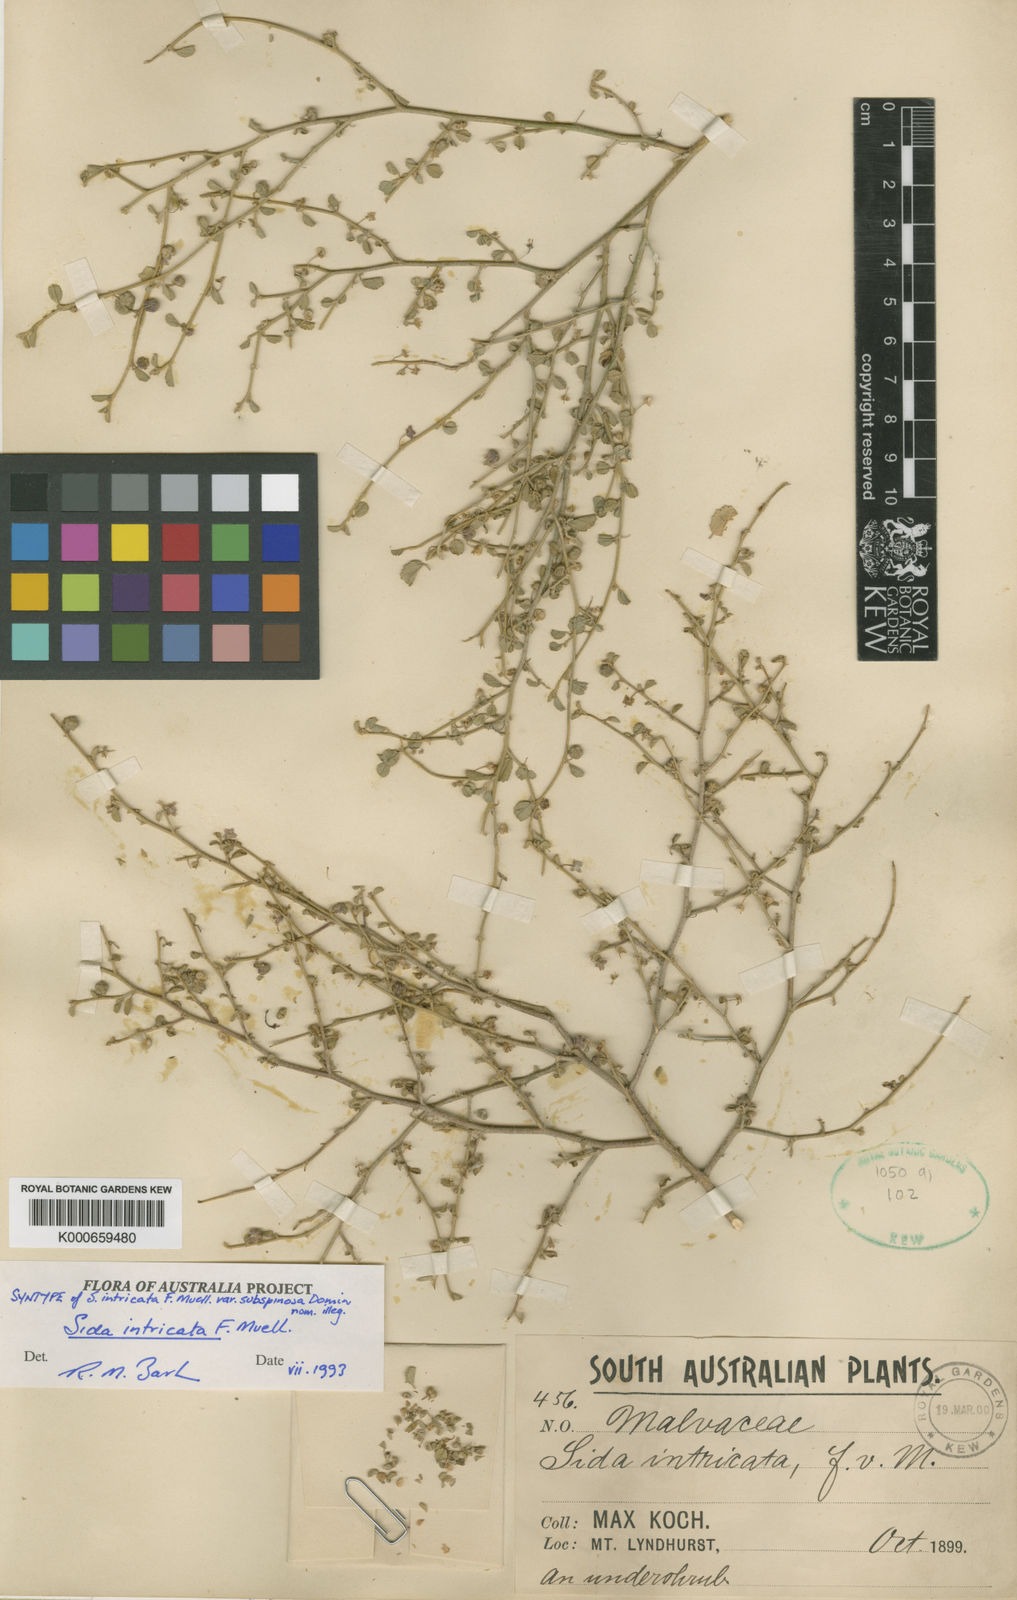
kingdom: Plantae
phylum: Tracheophyta
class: Magnoliopsida
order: Malvales
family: Malvaceae
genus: Sida
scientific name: Sida intricata
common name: Twiggy sida
